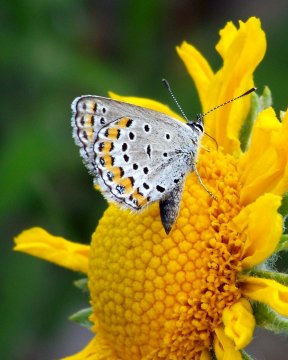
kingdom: Animalia
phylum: Arthropoda
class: Insecta
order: Lepidoptera
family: Lycaenidae
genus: Lycaeides
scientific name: Lycaeides melissa
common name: Melissa Blue
